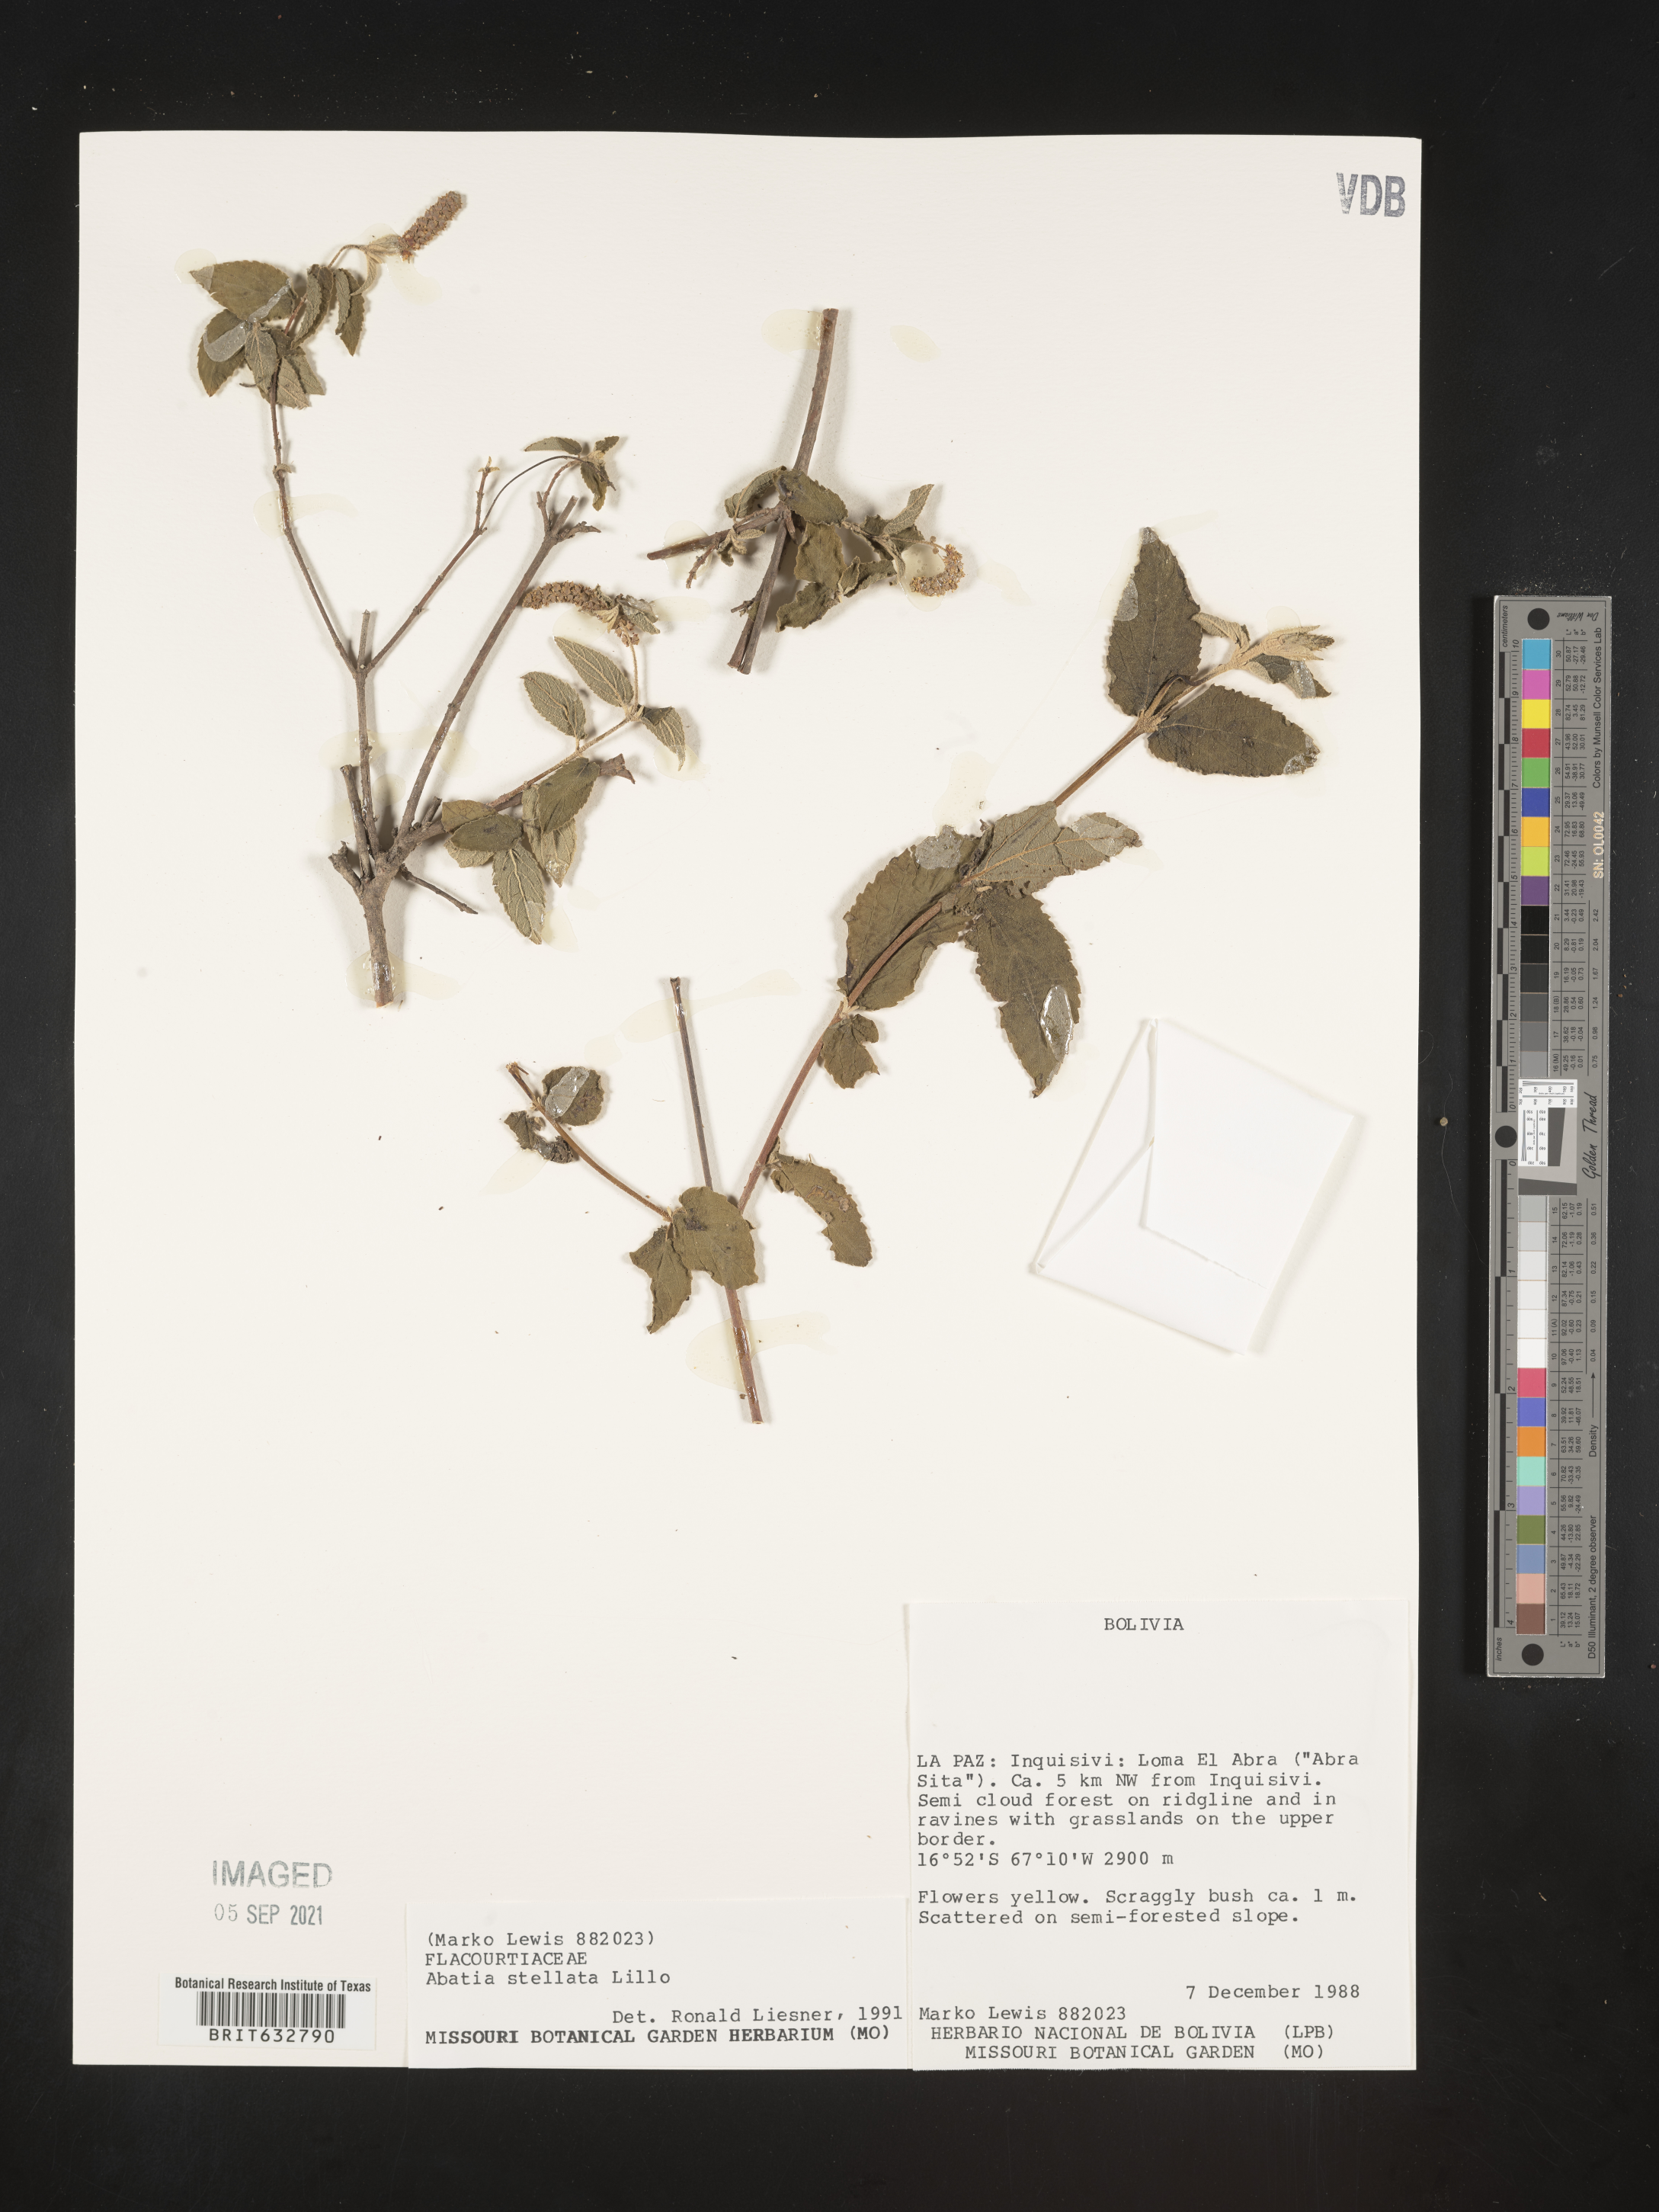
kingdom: Plantae
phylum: Tracheophyta
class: Magnoliopsida
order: Malpighiales
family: Salicaceae
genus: Abatia
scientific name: Abatia
